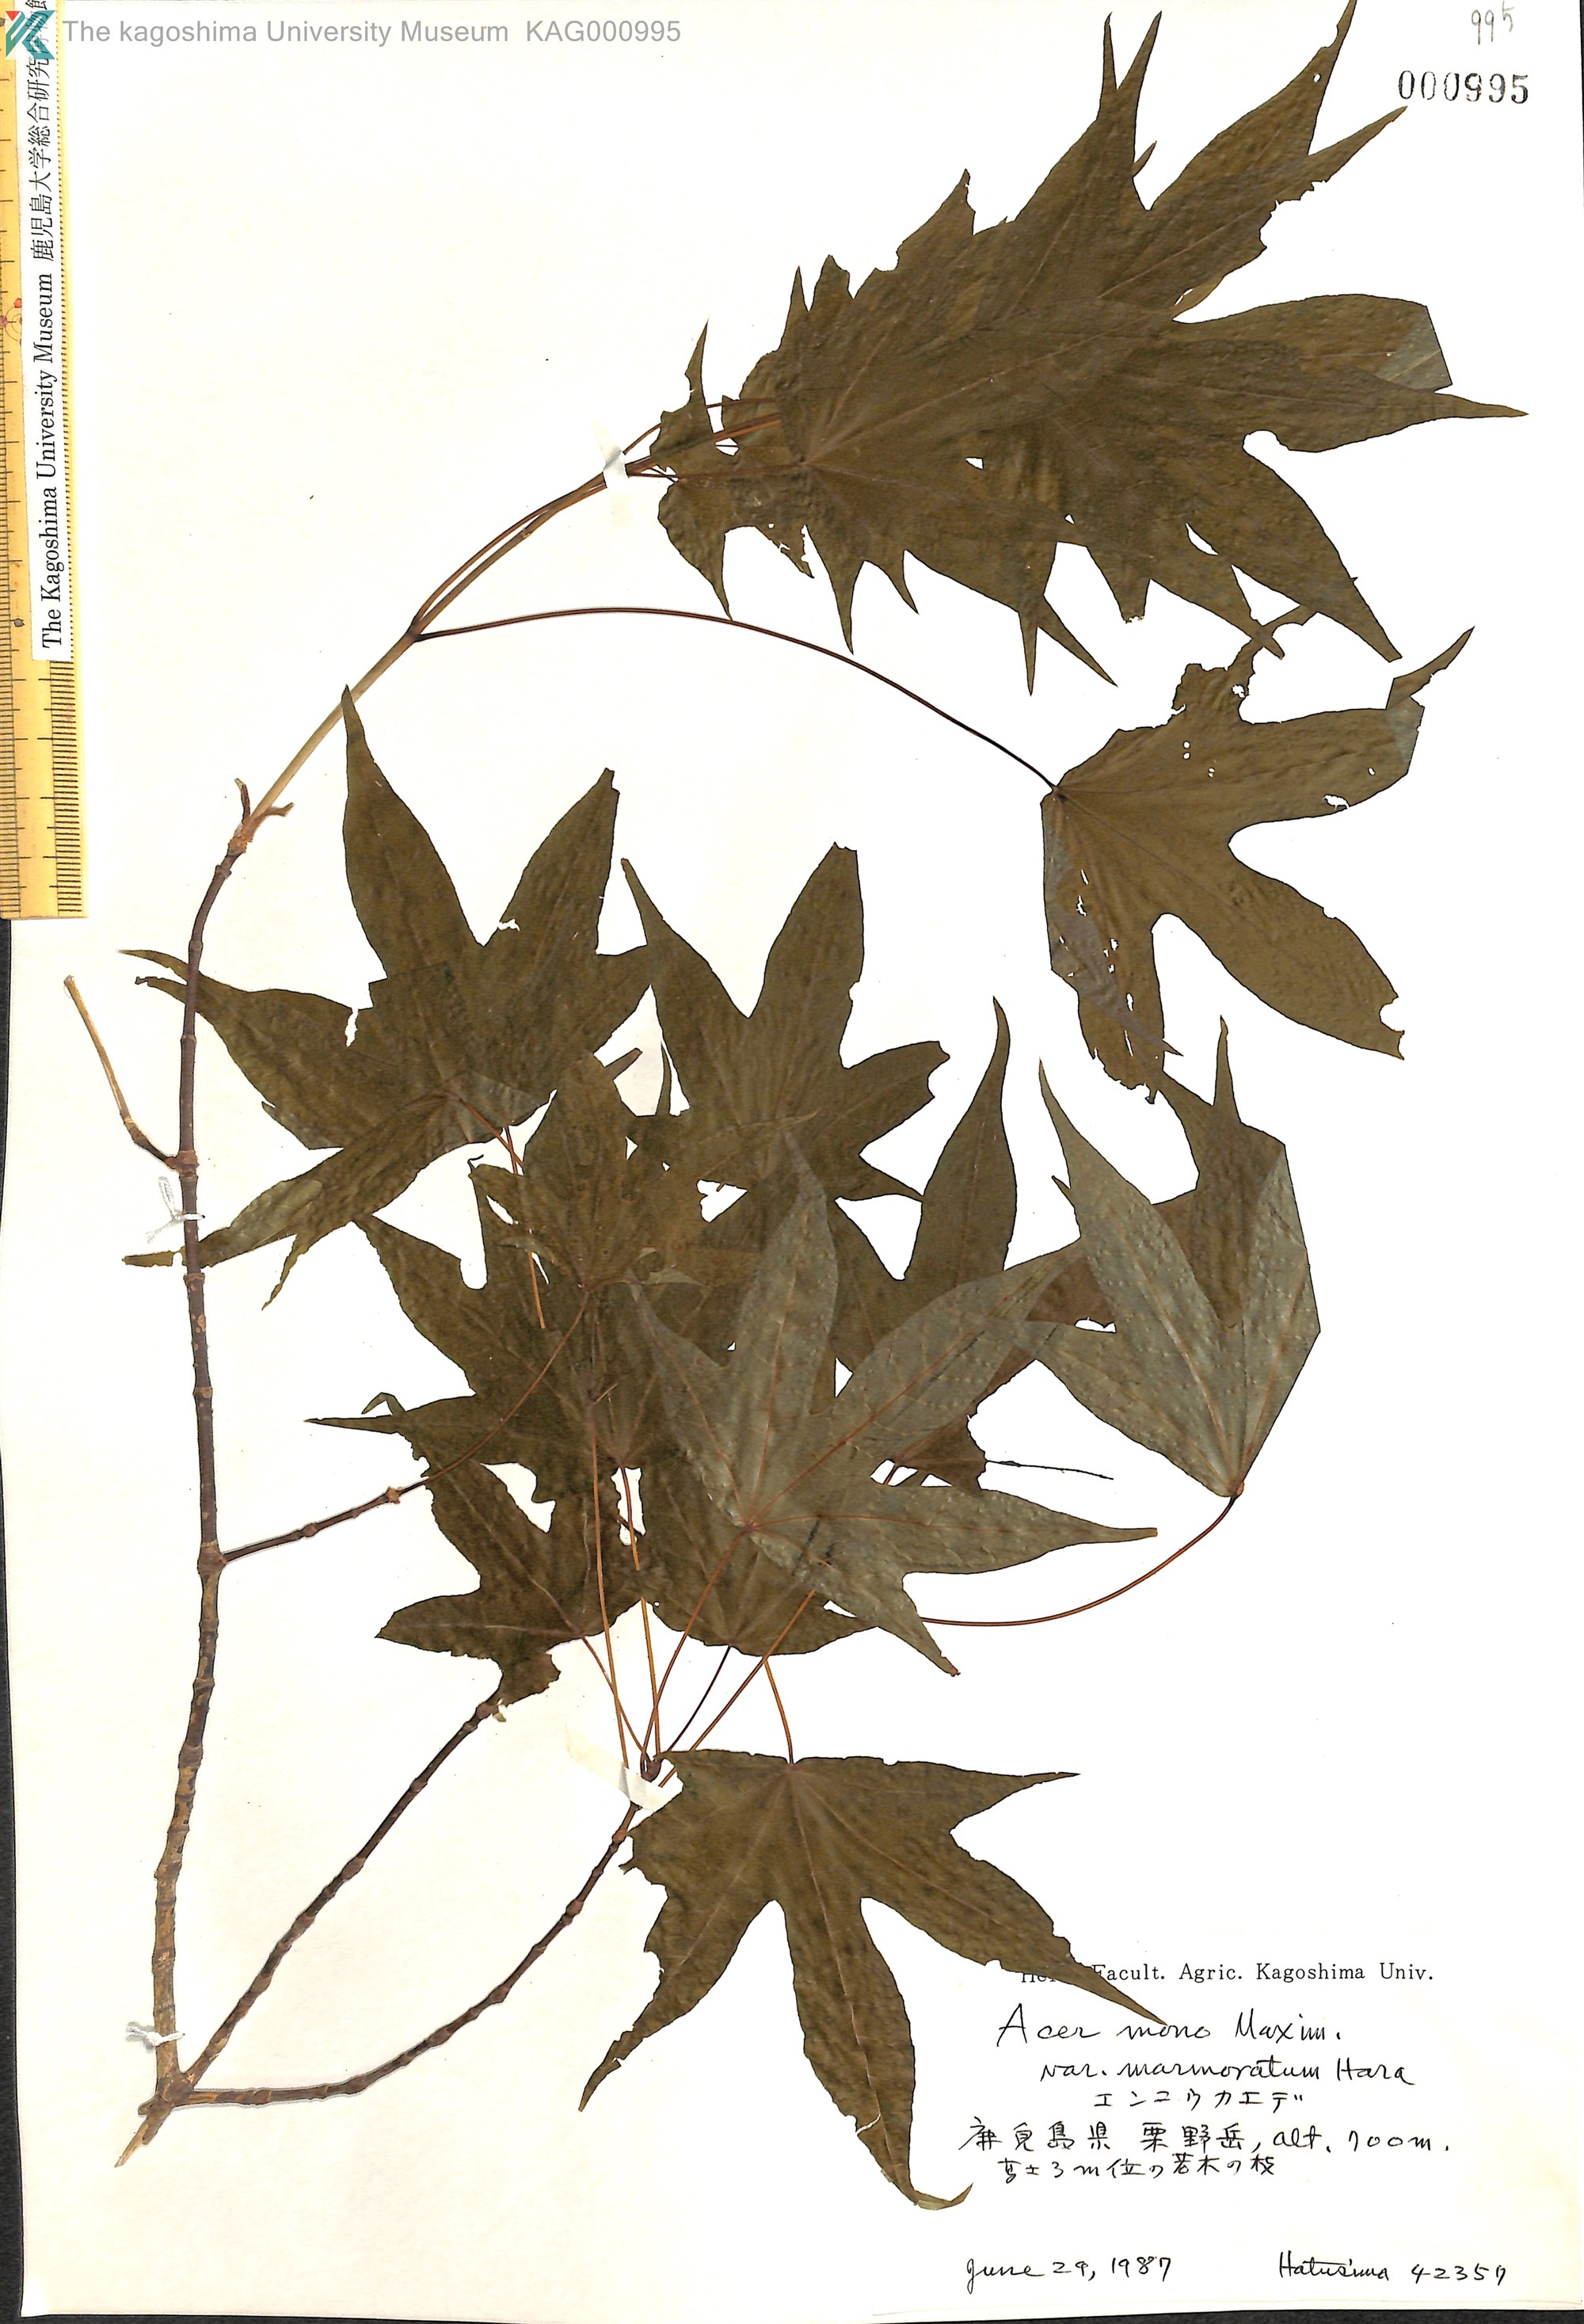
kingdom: Plantae
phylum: Tracheophyta
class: Magnoliopsida
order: Sapindales
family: Sapindaceae
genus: Acer
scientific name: Acer pictum
